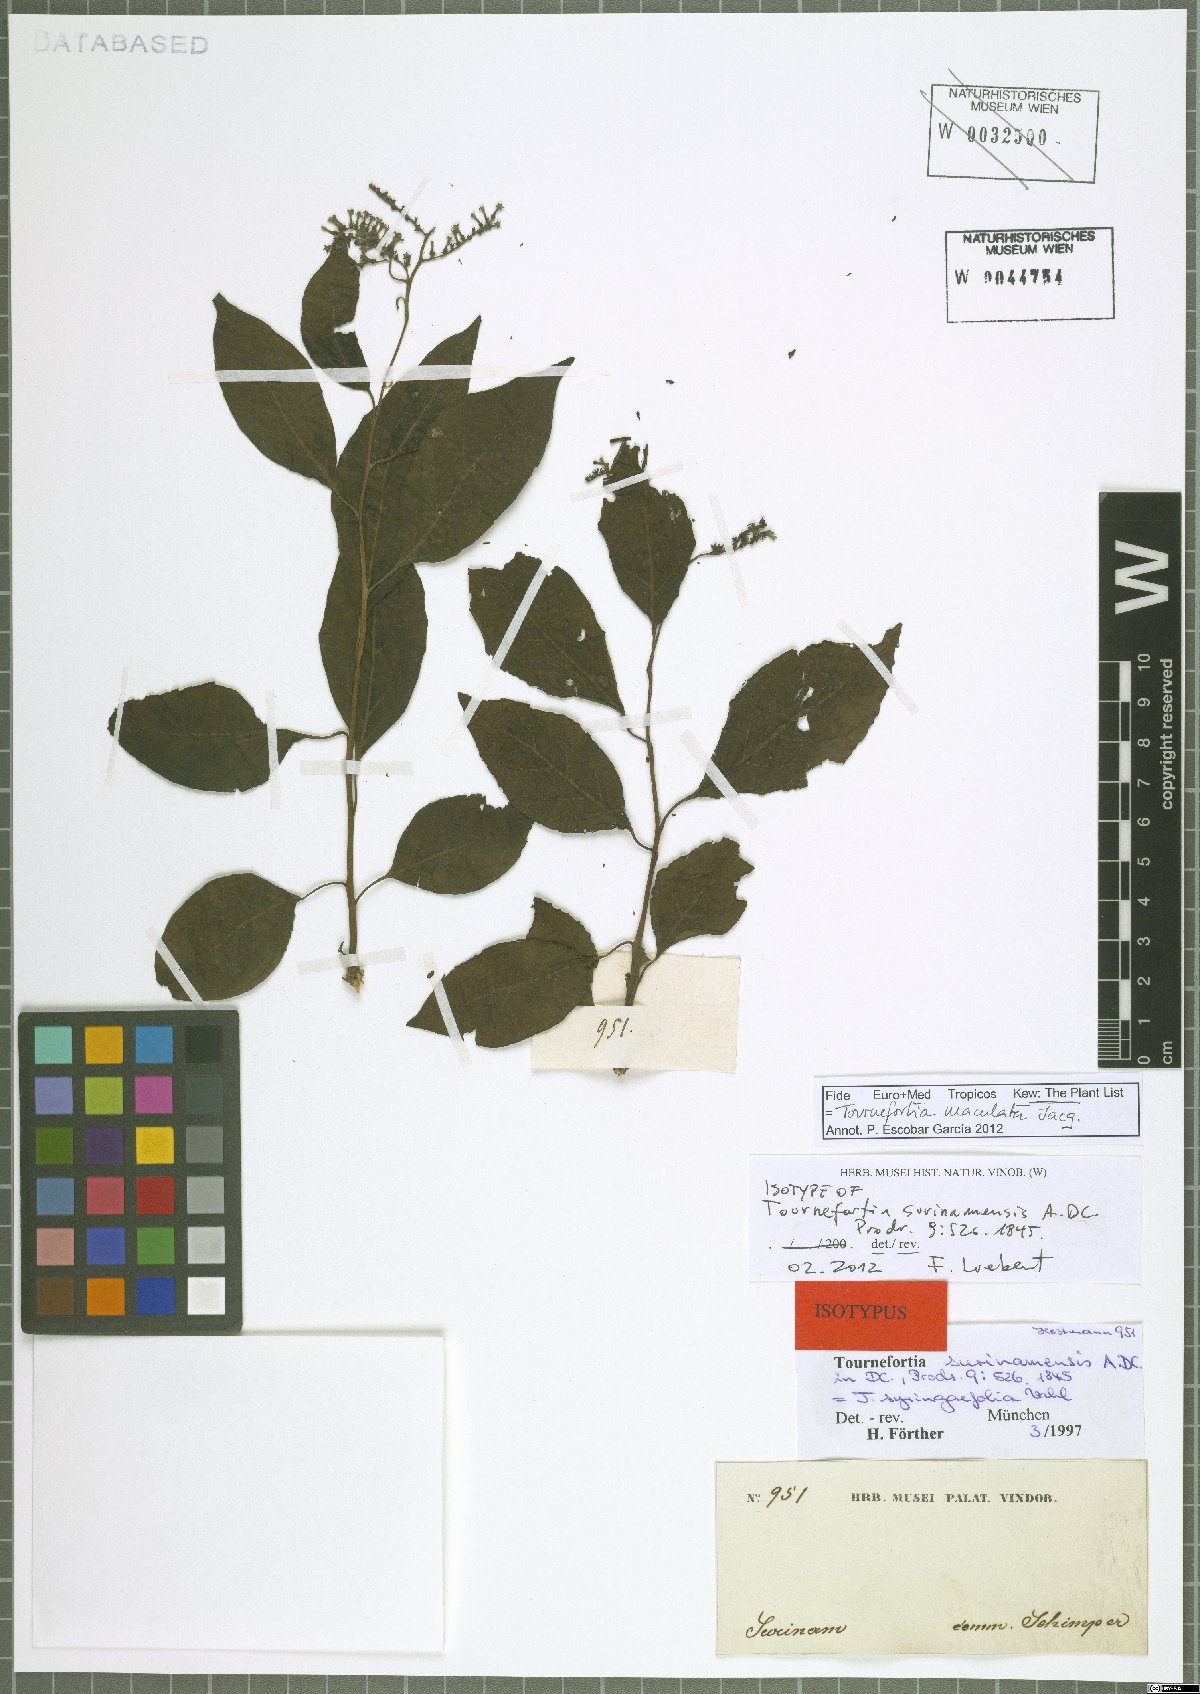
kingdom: Plantae
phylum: Tracheophyta
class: Magnoliopsida
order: Boraginales
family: Heliotropiaceae
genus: Myriopus
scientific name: Myriopus maculatus
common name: Laurel-leaf soldierbush
